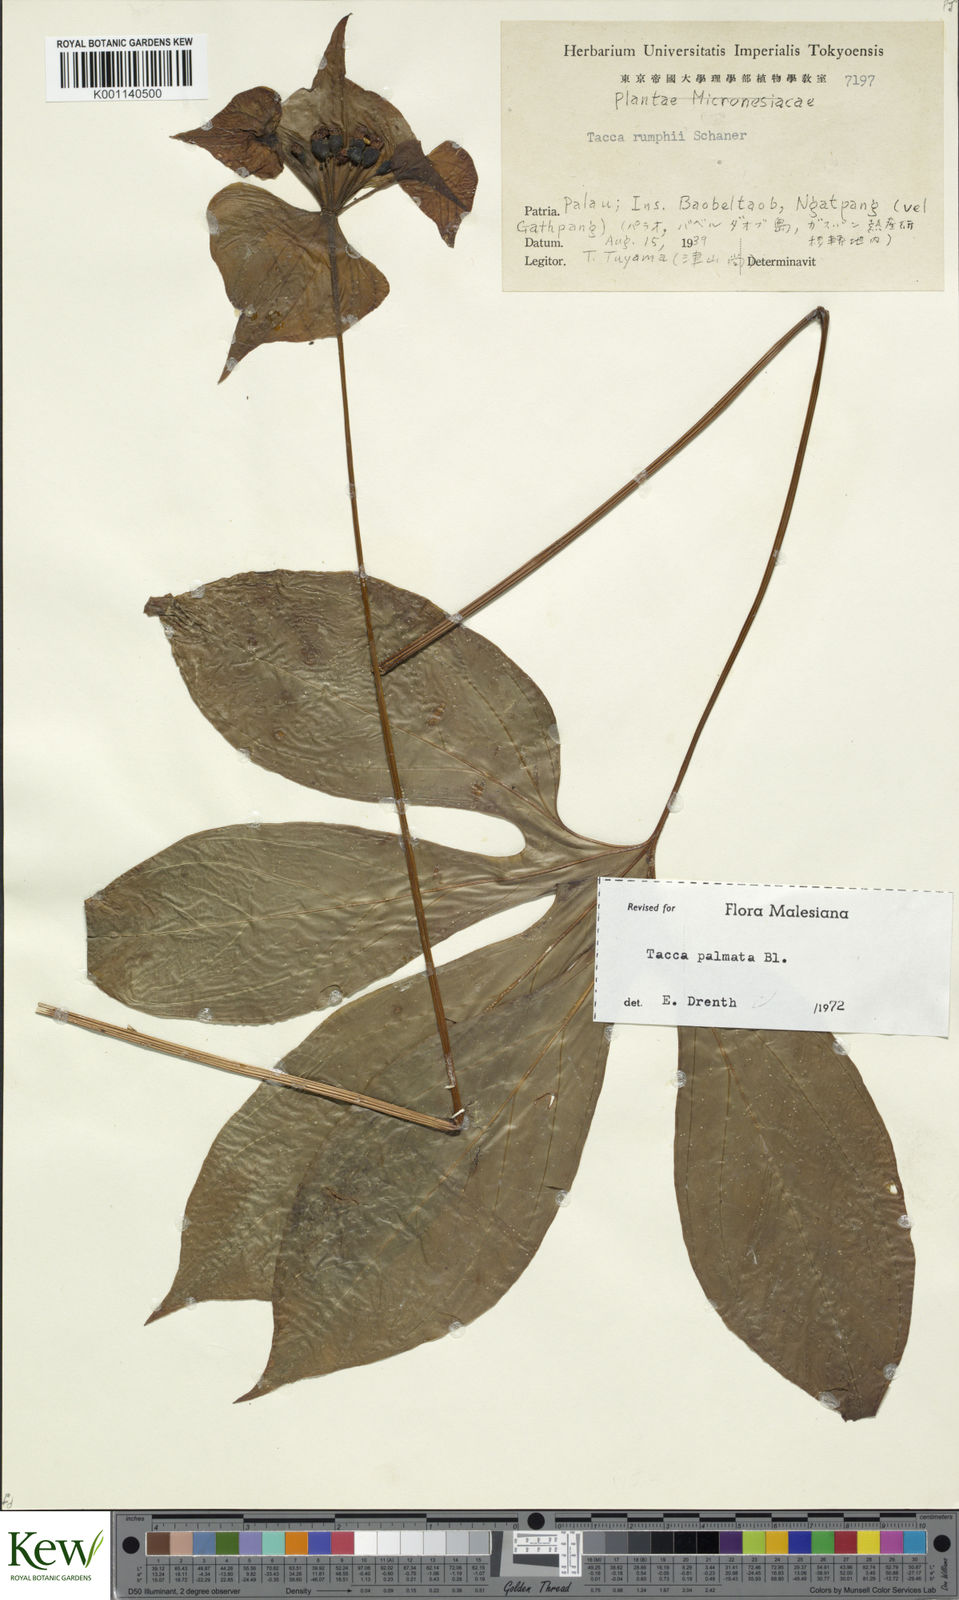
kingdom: Plantae
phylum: Tracheophyta
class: Liliopsida
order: Dioscoreales
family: Dioscoreaceae
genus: Tacca
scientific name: Tacca palmata
